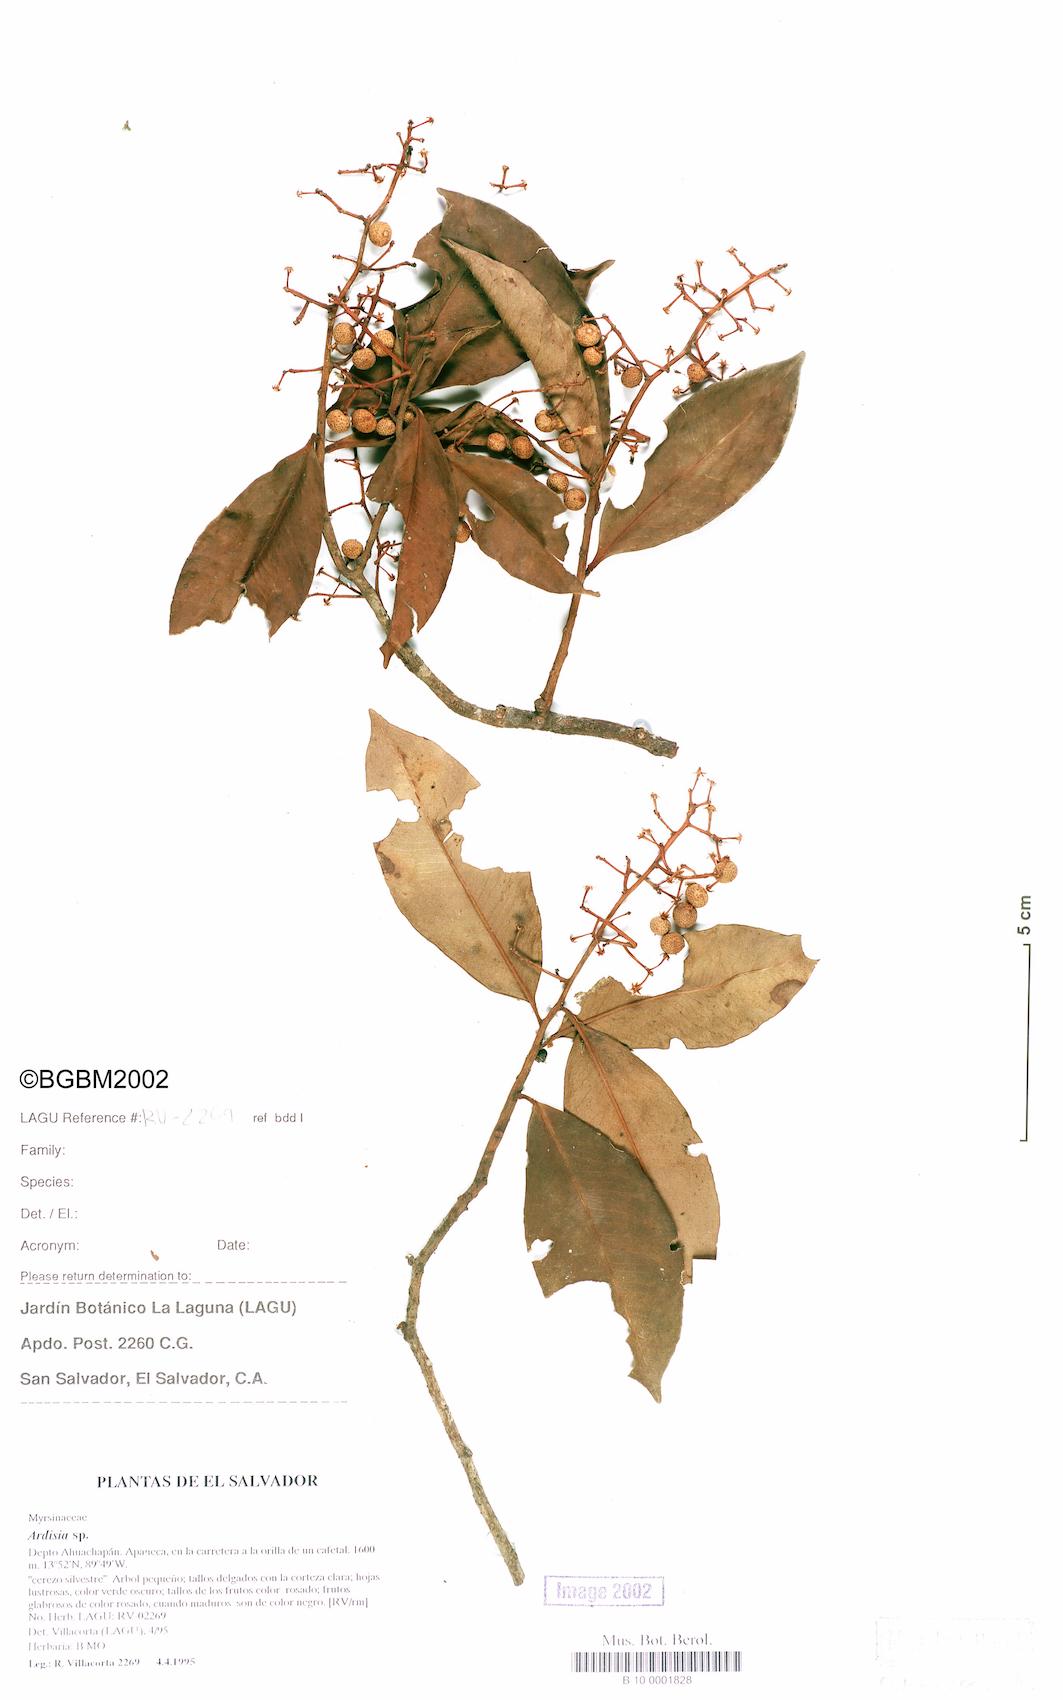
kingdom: Plantae
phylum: Tracheophyta
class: Magnoliopsida
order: Ericales
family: Primulaceae
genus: Ardisia
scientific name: Ardisia compressa
